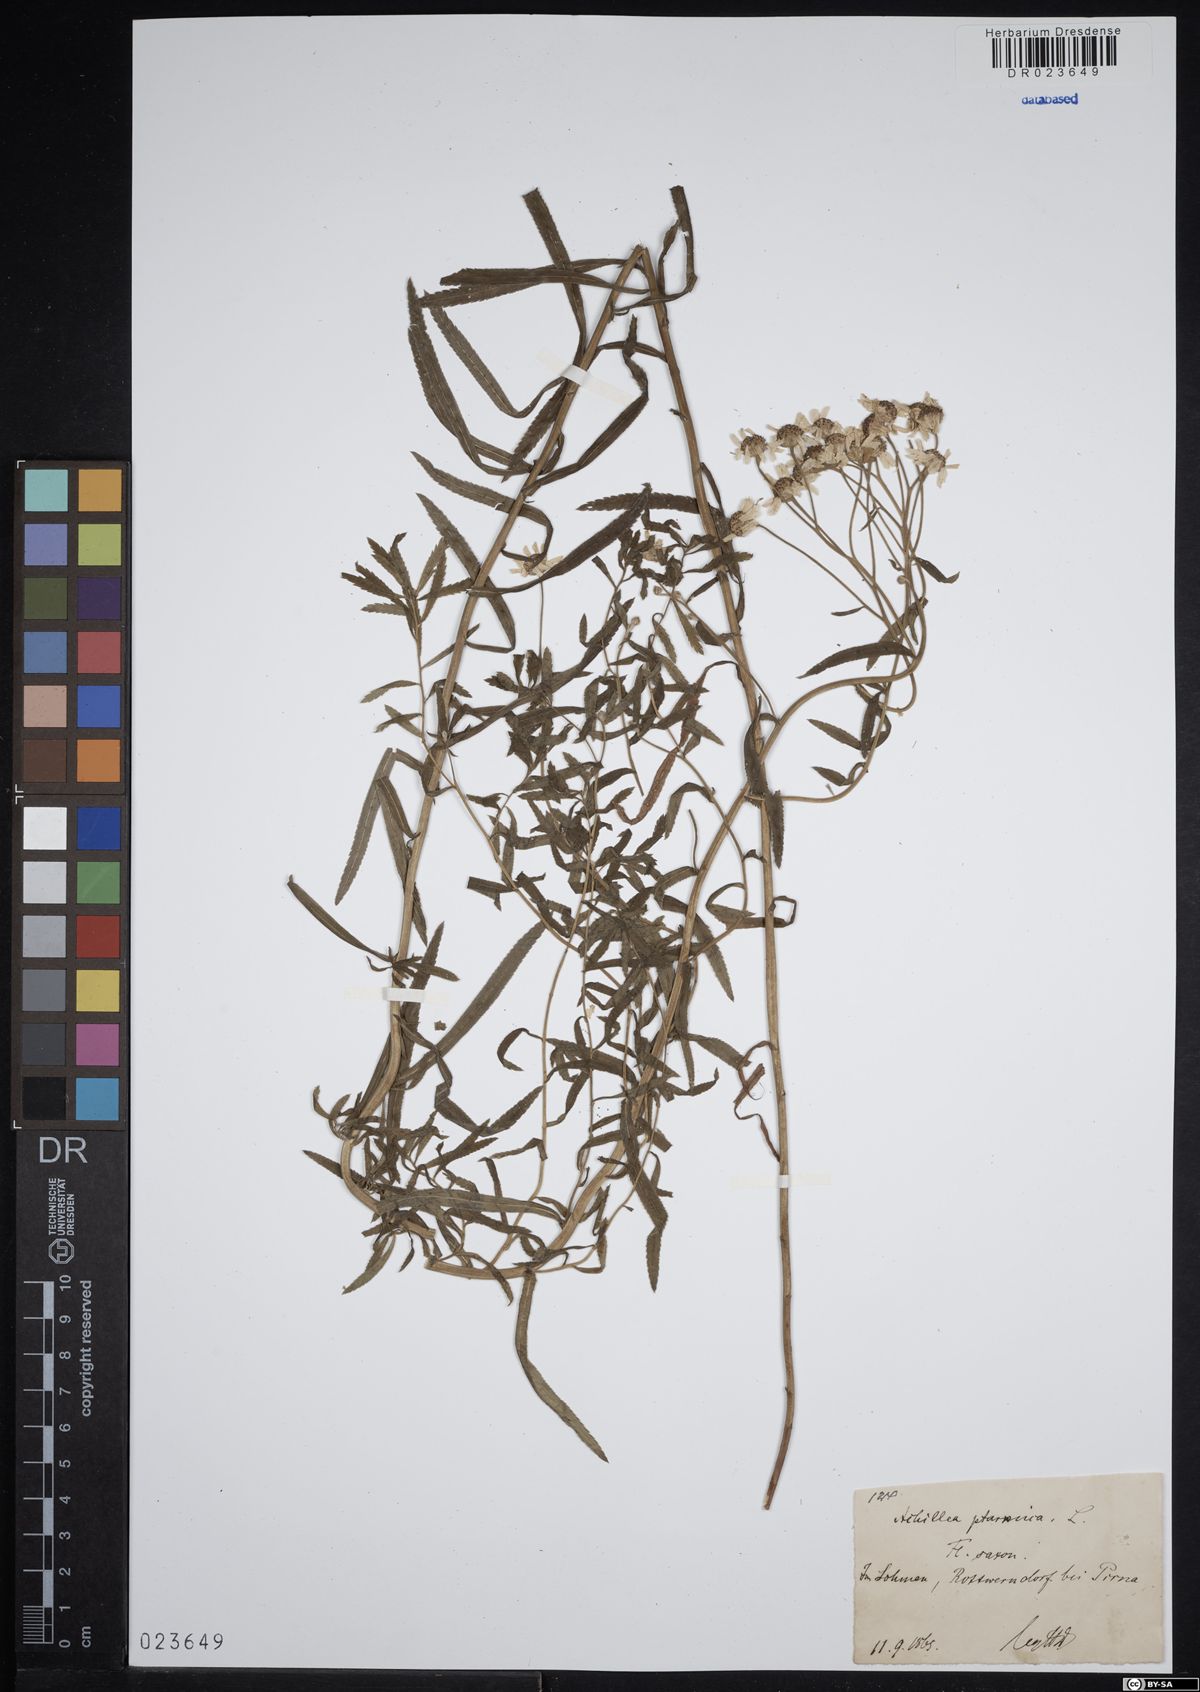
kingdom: Plantae
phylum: Tracheophyta
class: Magnoliopsida
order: Asterales
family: Asteraceae
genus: Achillea
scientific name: Achillea ptarmica
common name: Sneezeweed
